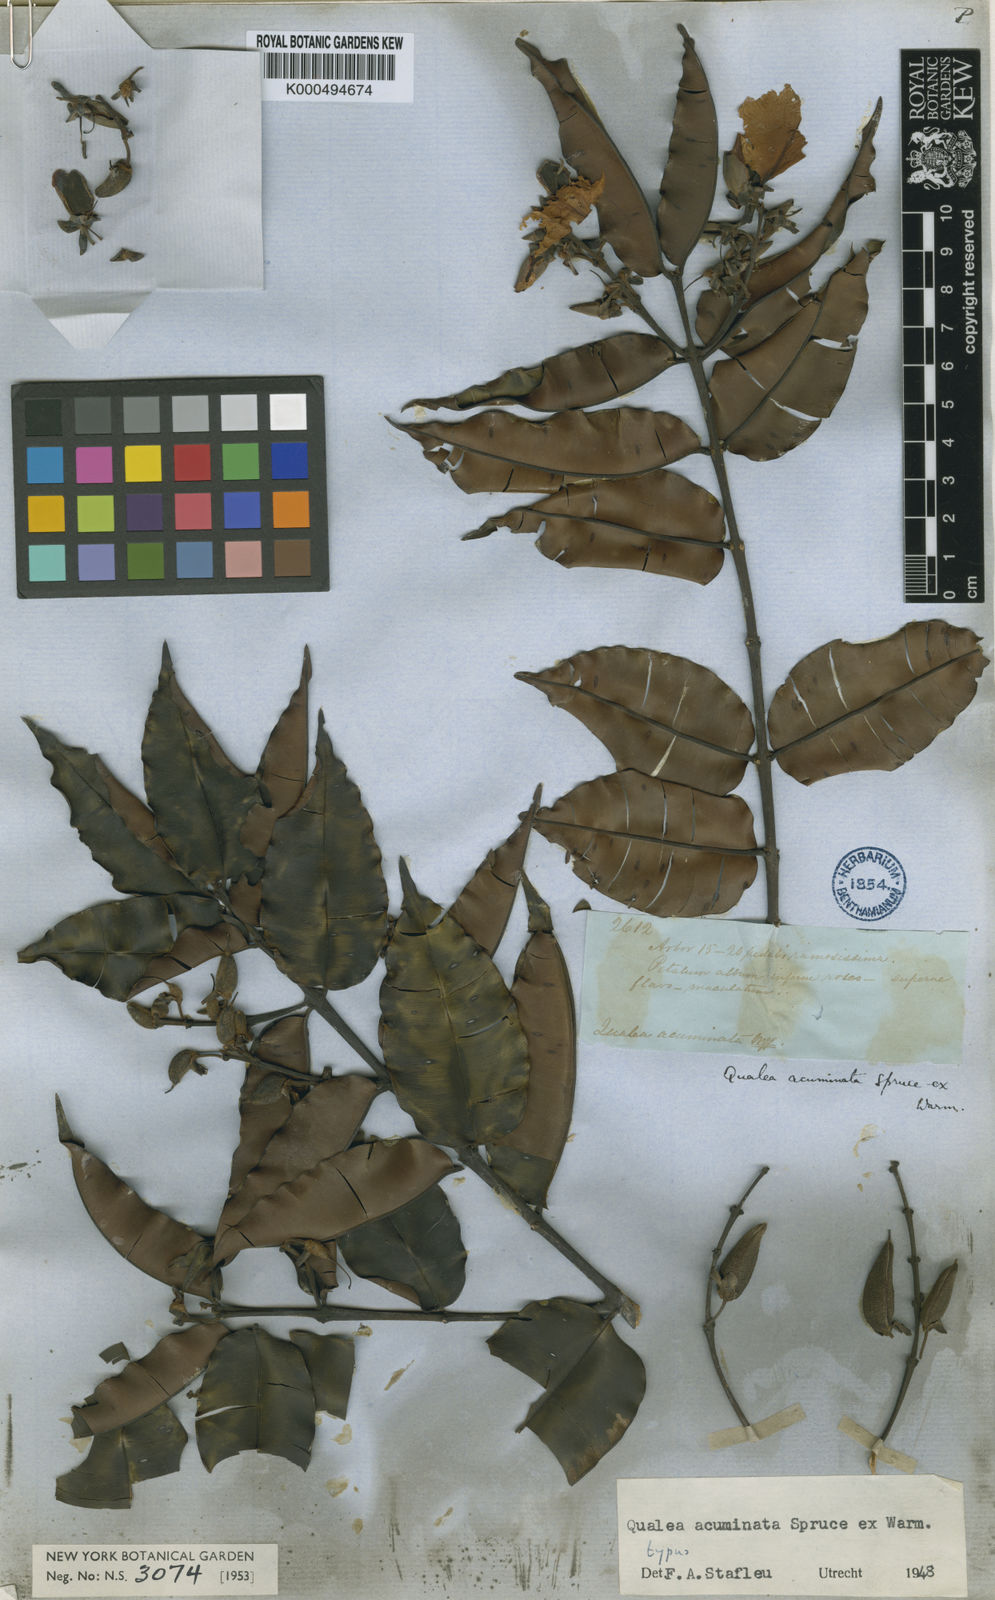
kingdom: Plantae
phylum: Tracheophyta
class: Magnoliopsida
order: Myrtales
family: Vochysiaceae
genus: Qualea
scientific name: Qualea acuminata
